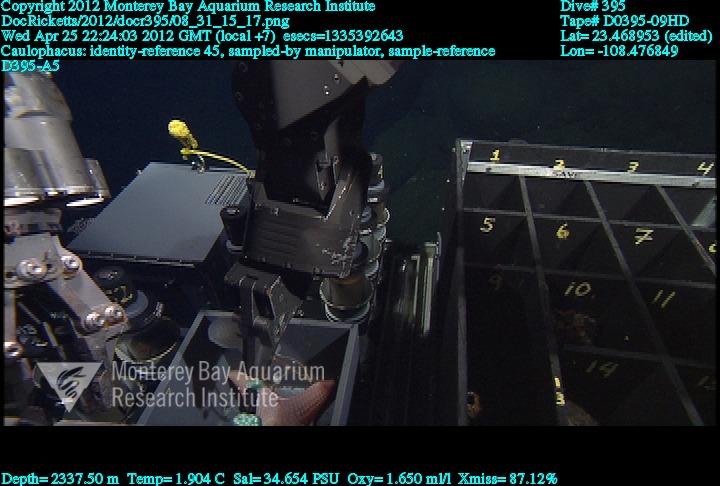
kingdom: Animalia
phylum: Porifera
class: Hexactinellida
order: Lyssacinosida
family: Rossellidae
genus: Caulophacus
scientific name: Caulophacus
